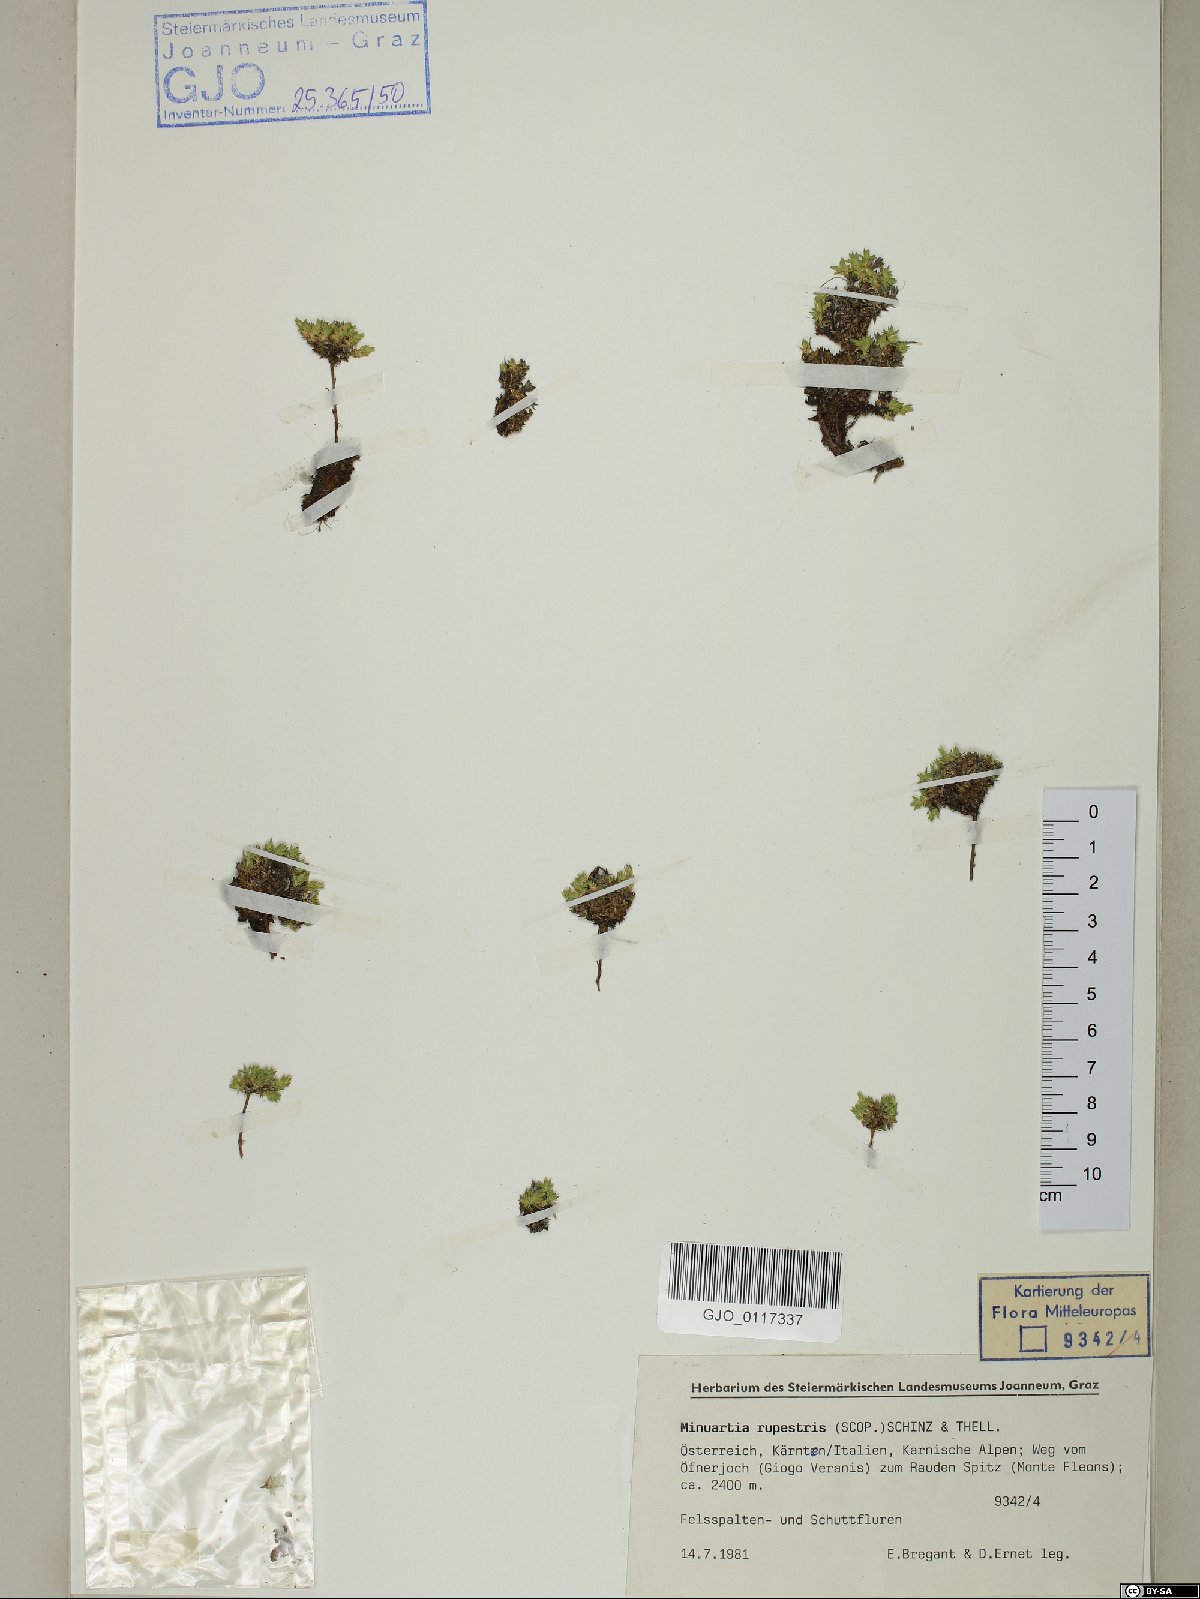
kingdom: Plantae
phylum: Tracheophyta
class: Magnoliopsida
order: Caryophyllales
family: Caryophyllaceae
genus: Facchinia
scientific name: Facchinia rupestris
